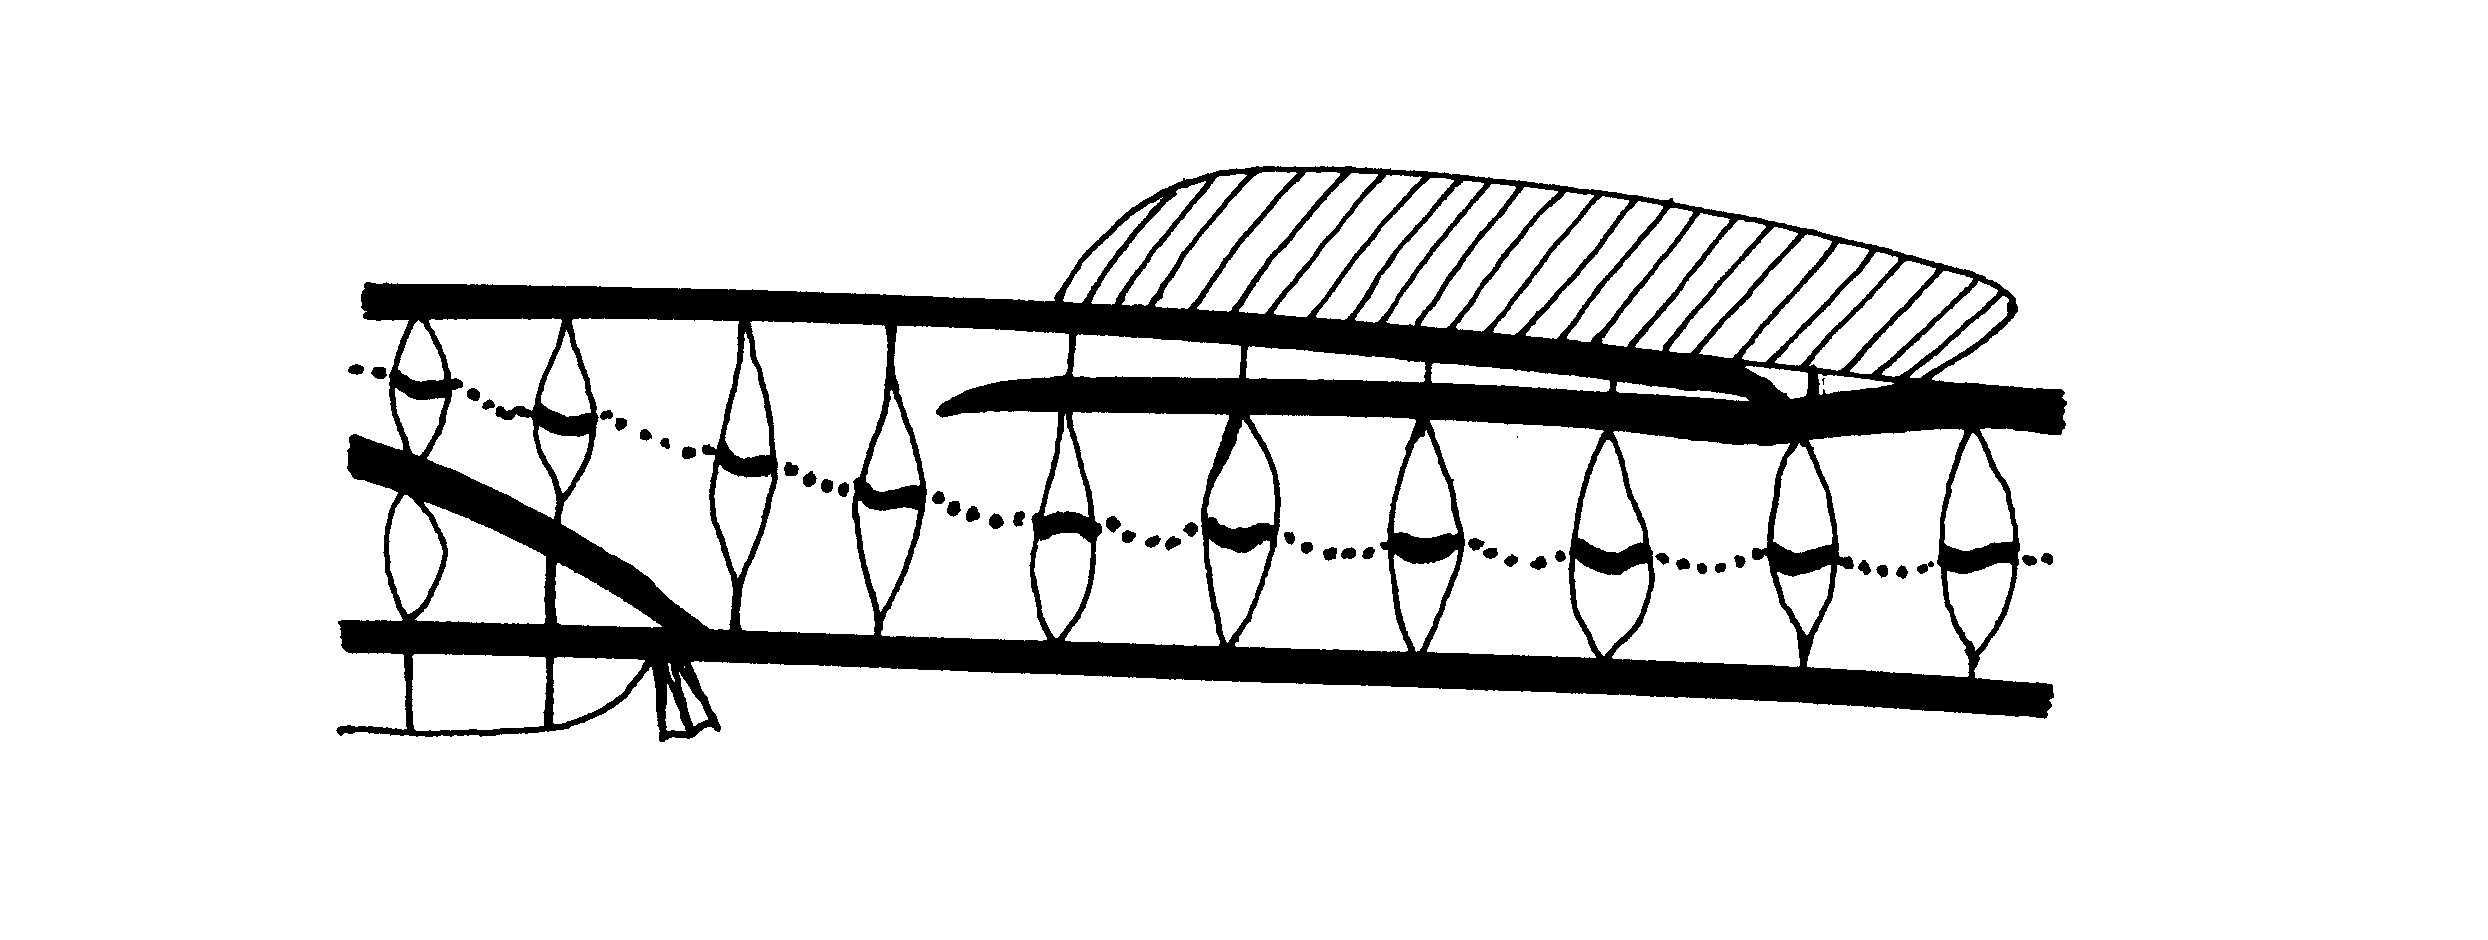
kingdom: Animalia
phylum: Chordata
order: Syngnathiformes
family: Syngnathidae
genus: Hippichthys
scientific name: Hippichthys spicifer
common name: Banded freshwater pipefish
